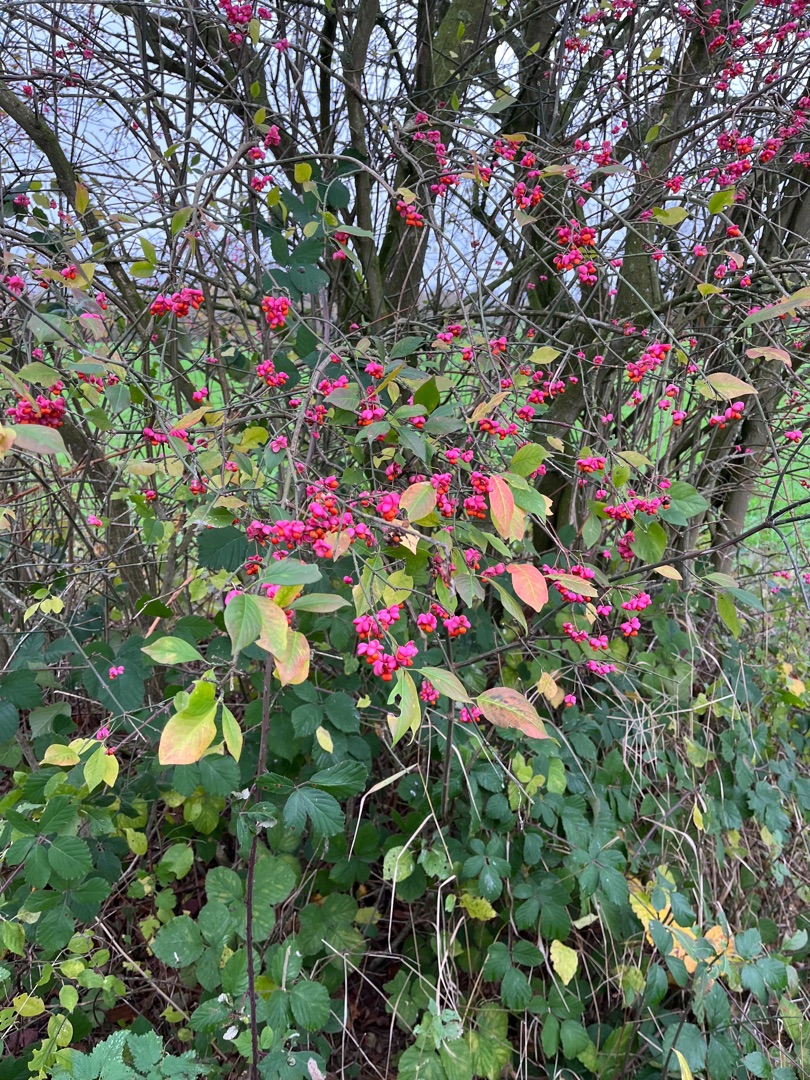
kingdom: Plantae
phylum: Tracheophyta
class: Magnoliopsida
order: Celastrales
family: Celastraceae
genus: Euonymus
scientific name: Euonymus europaeus
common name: Benved
